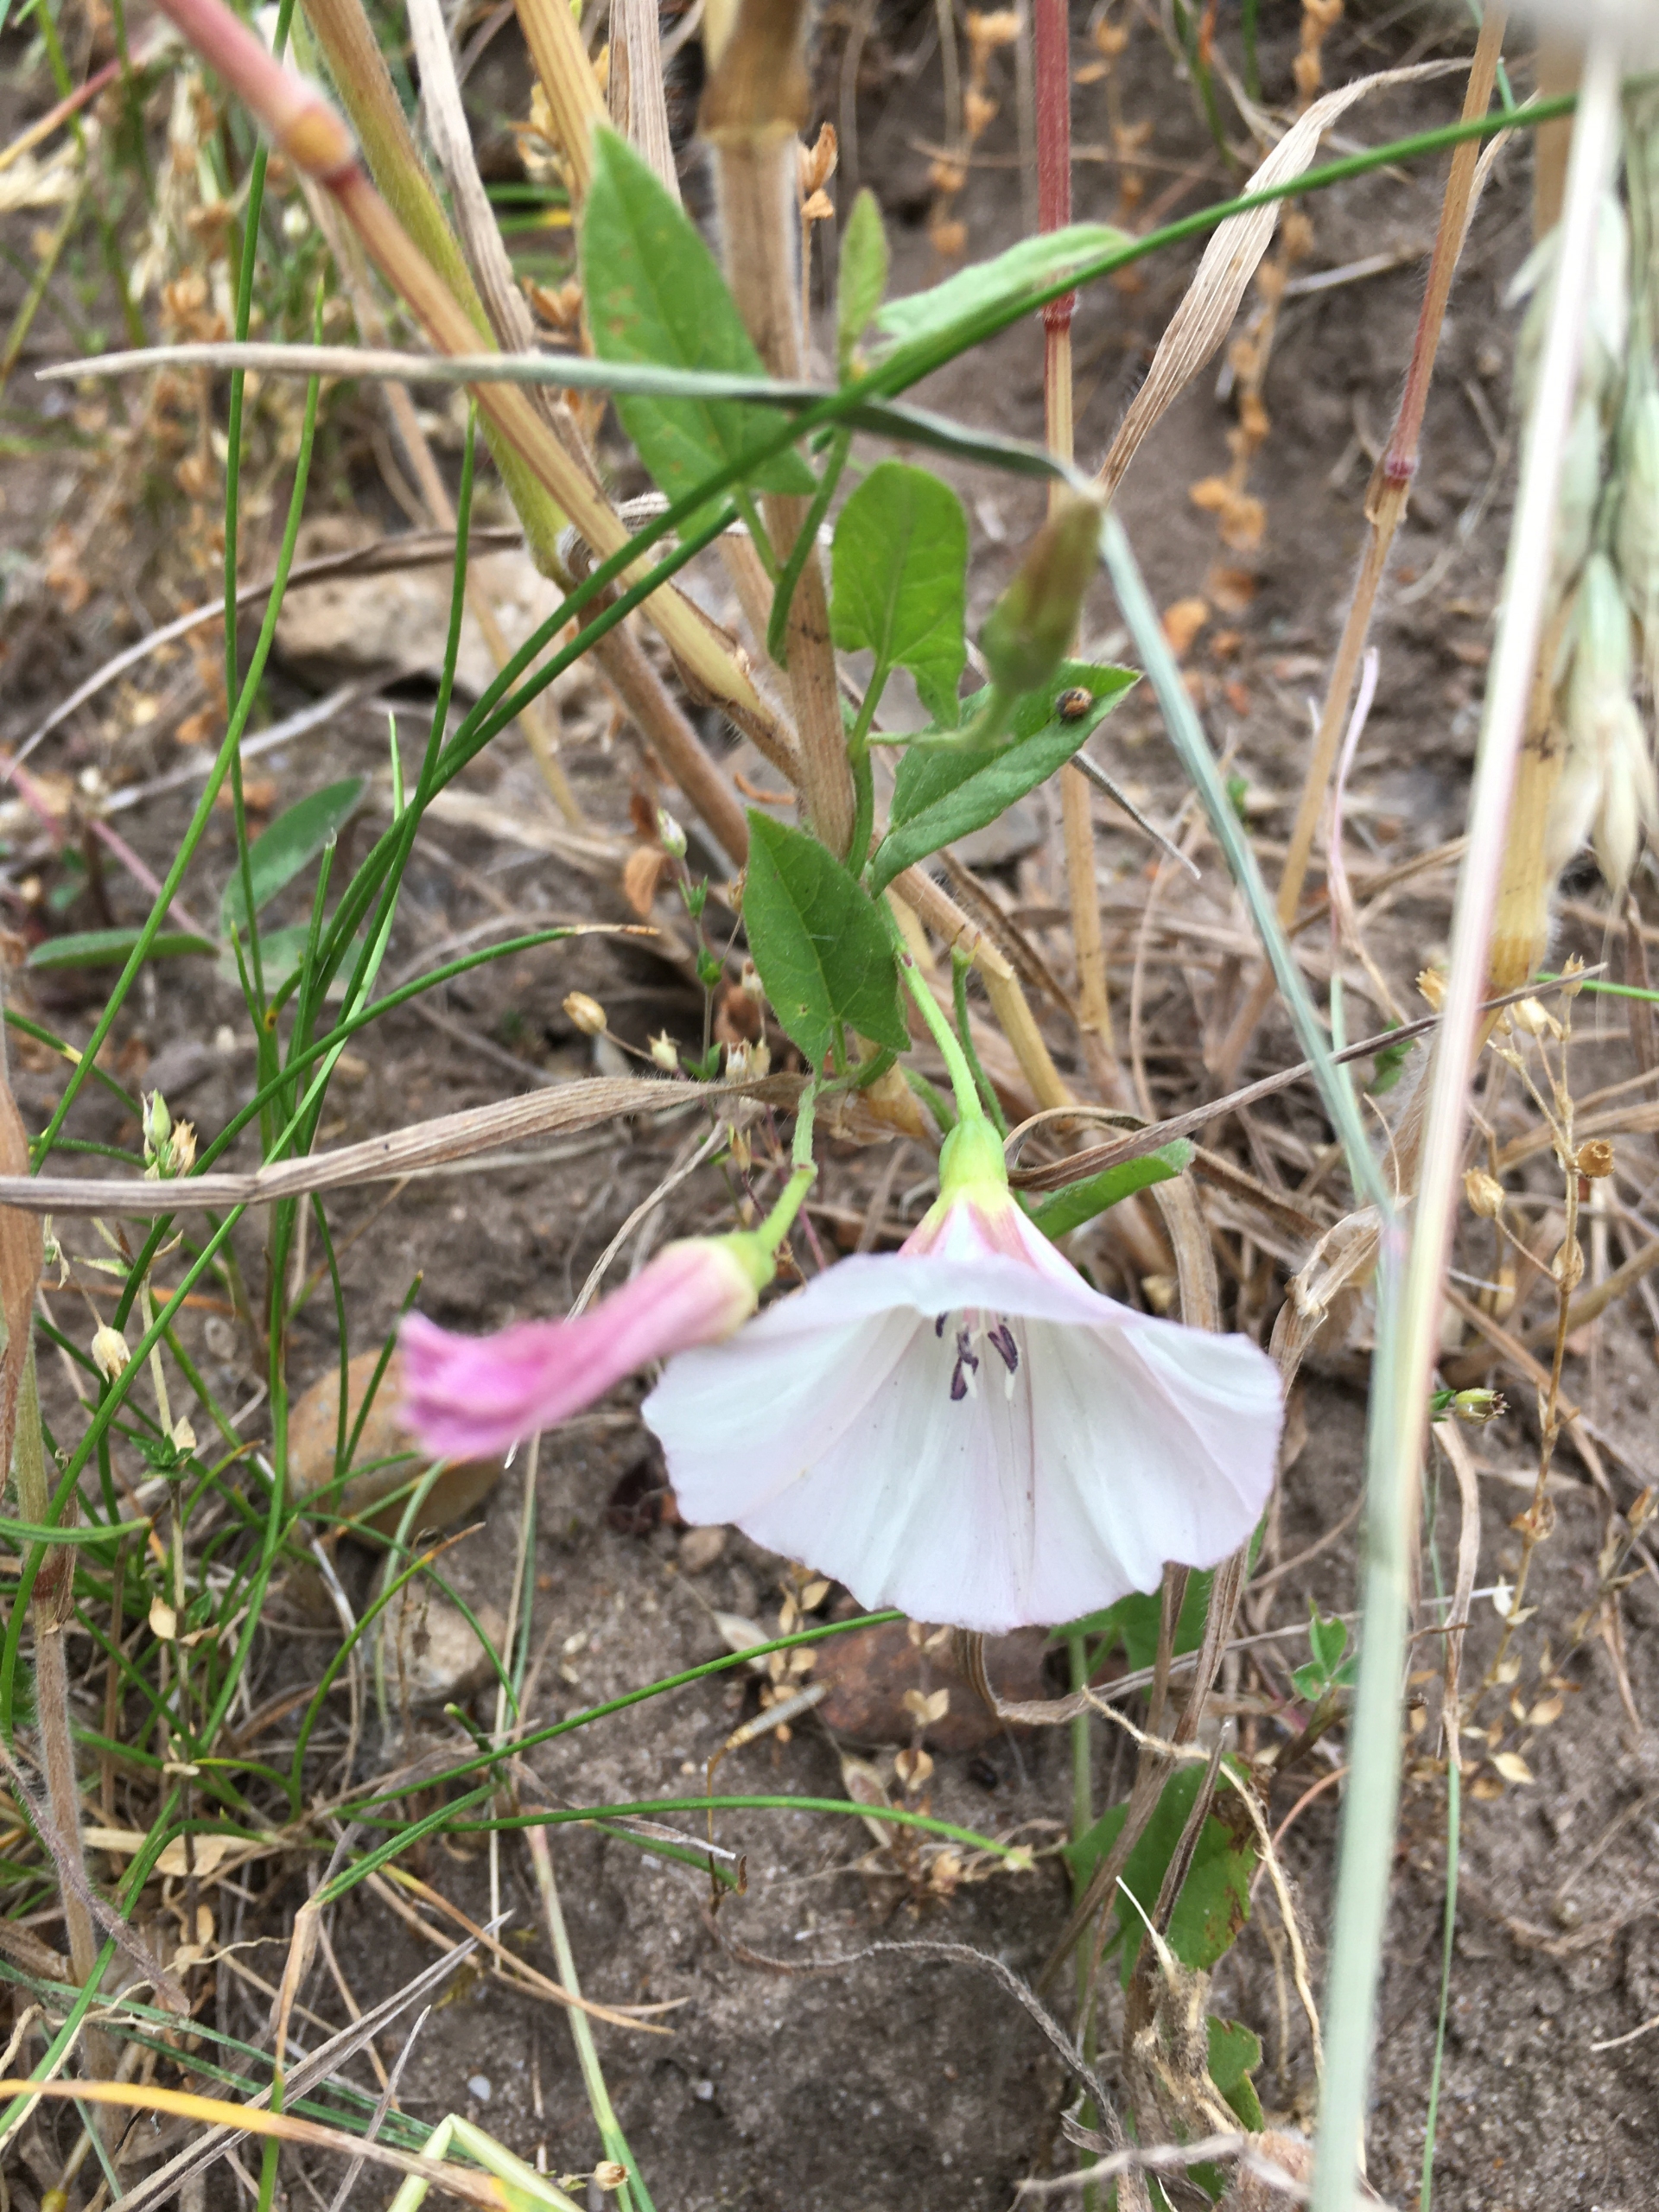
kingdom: Plantae
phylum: Tracheophyta
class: Magnoliopsida
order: Solanales
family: Convolvulaceae
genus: Convolvulus
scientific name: Convolvulus arvensis
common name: Ager-snerle
